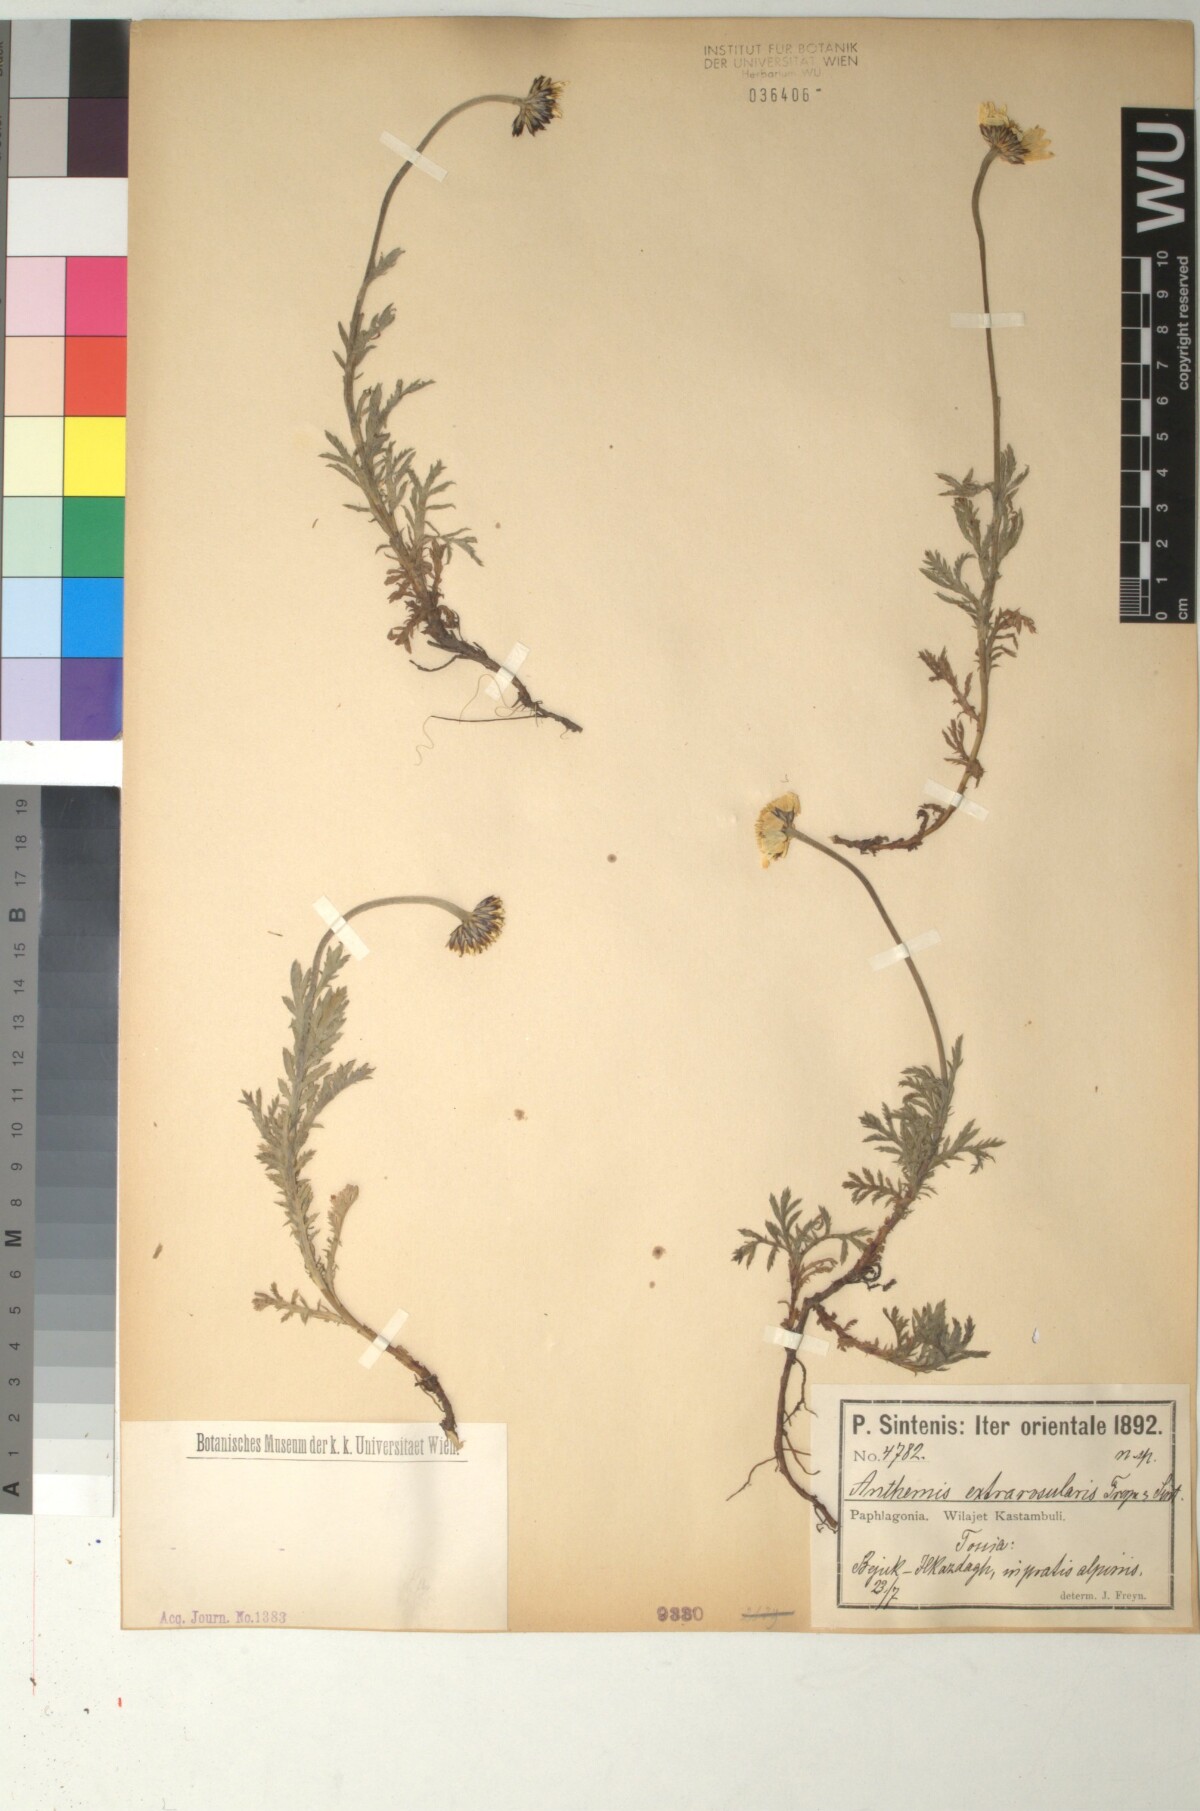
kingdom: Plantae
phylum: Tracheophyta
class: Magnoliopsida
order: Asterales
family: Asteraceae
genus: Cota
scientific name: Cota melanoloma
